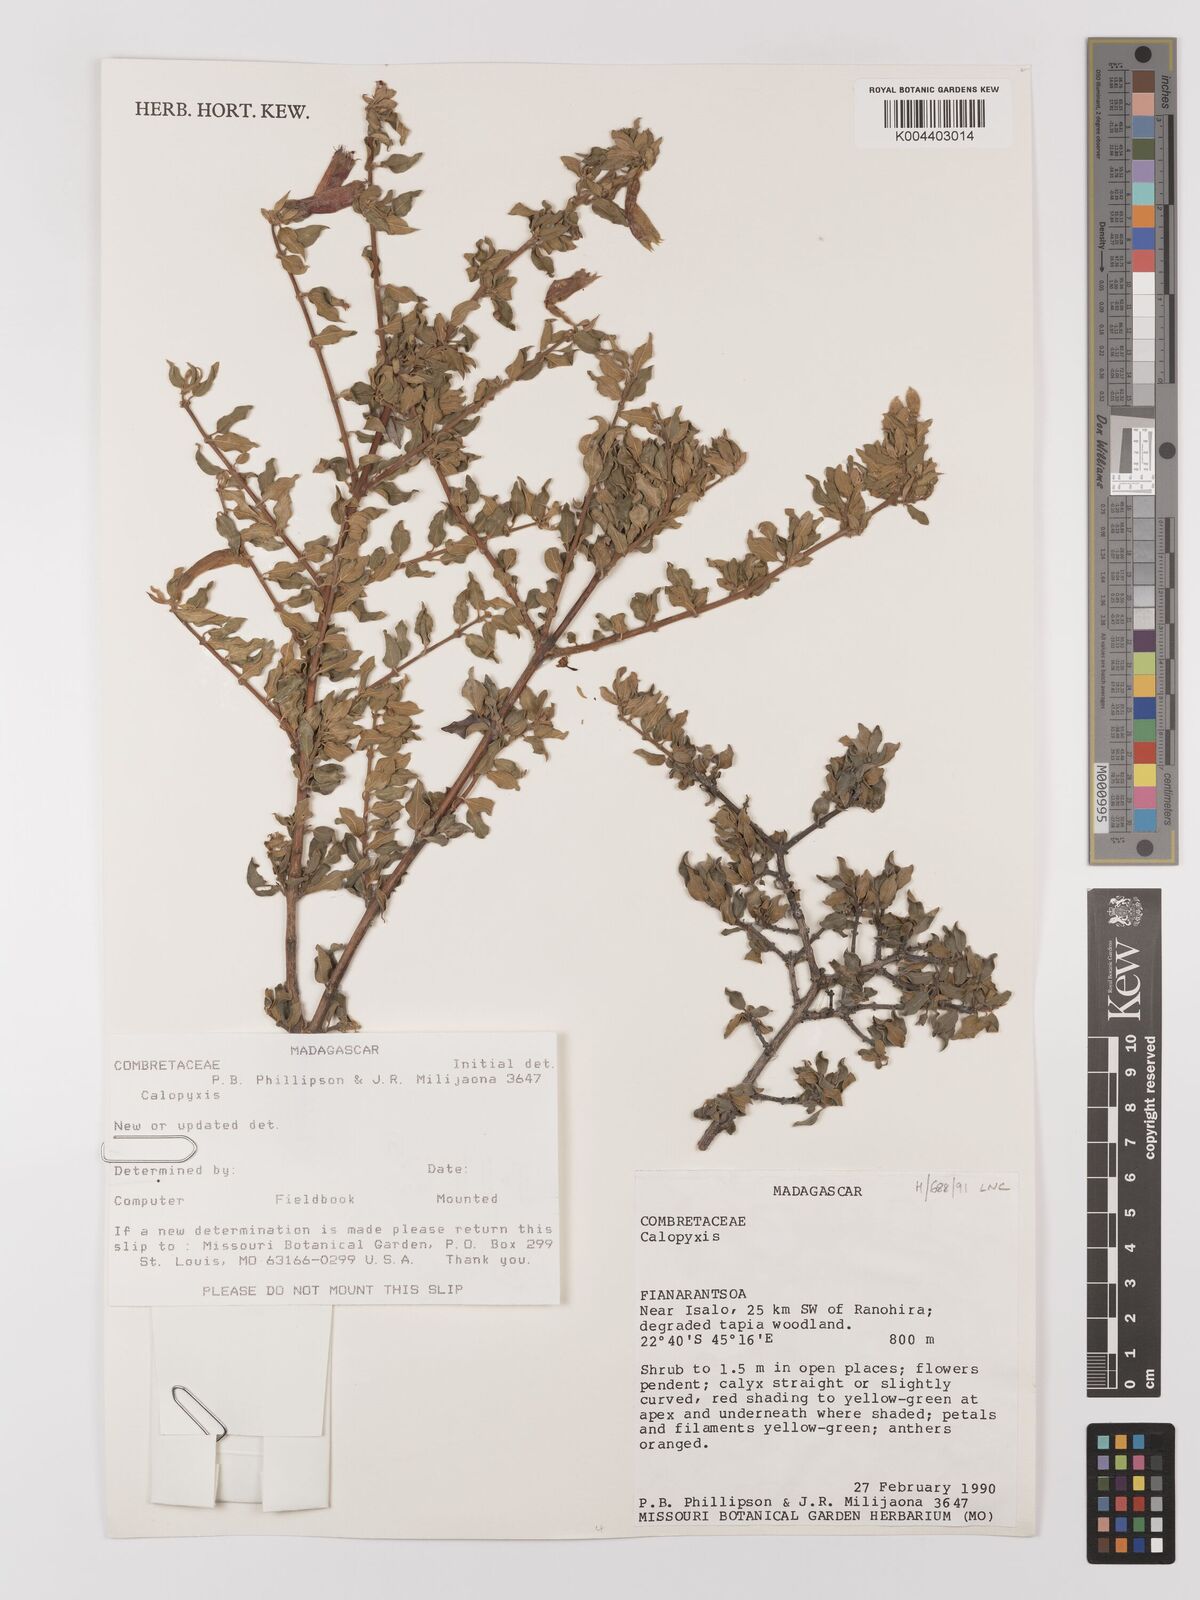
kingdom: Plantae
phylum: Tracheophyta
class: Magnoliopsida
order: Myrtales
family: Combretaceae
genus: Combretum
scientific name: Combretum
